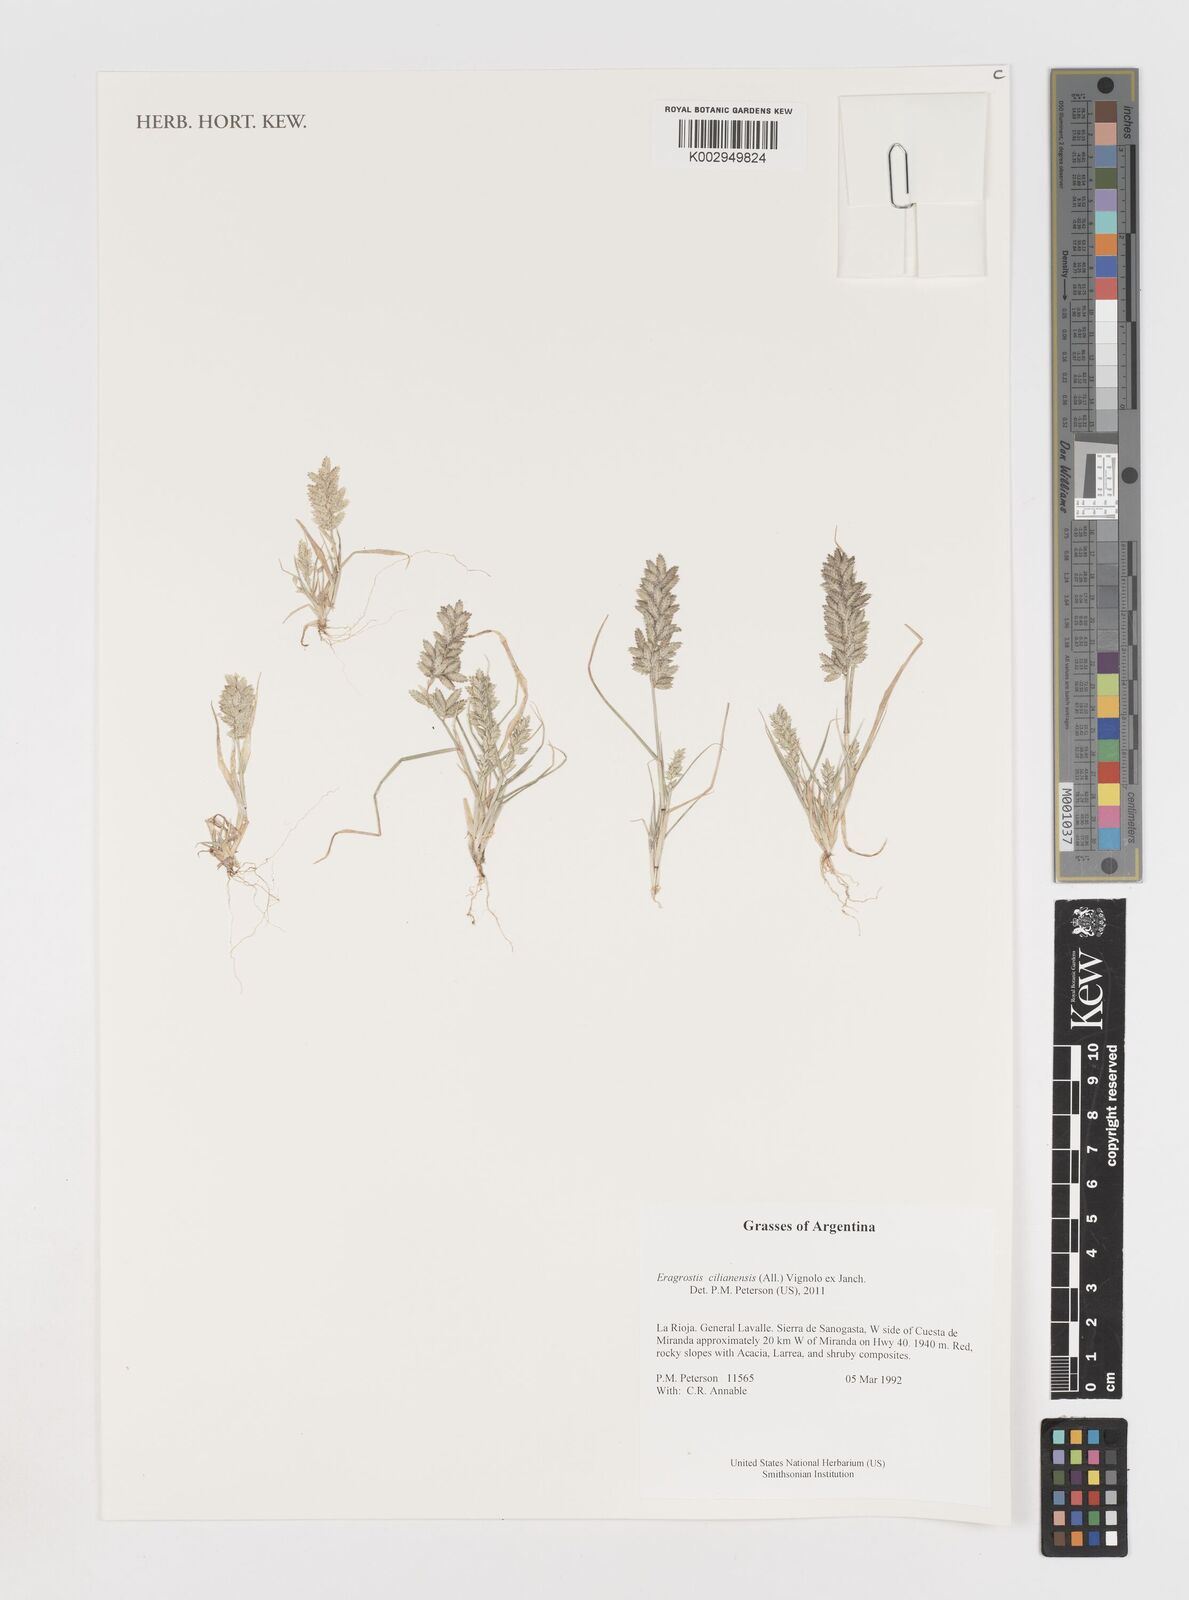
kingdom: Plantae
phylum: Tracheophyta
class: Liliopsida
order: Poales
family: Poaceae
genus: Eragrostis
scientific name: Eragrostis cilianensis
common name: Stinkgrass
